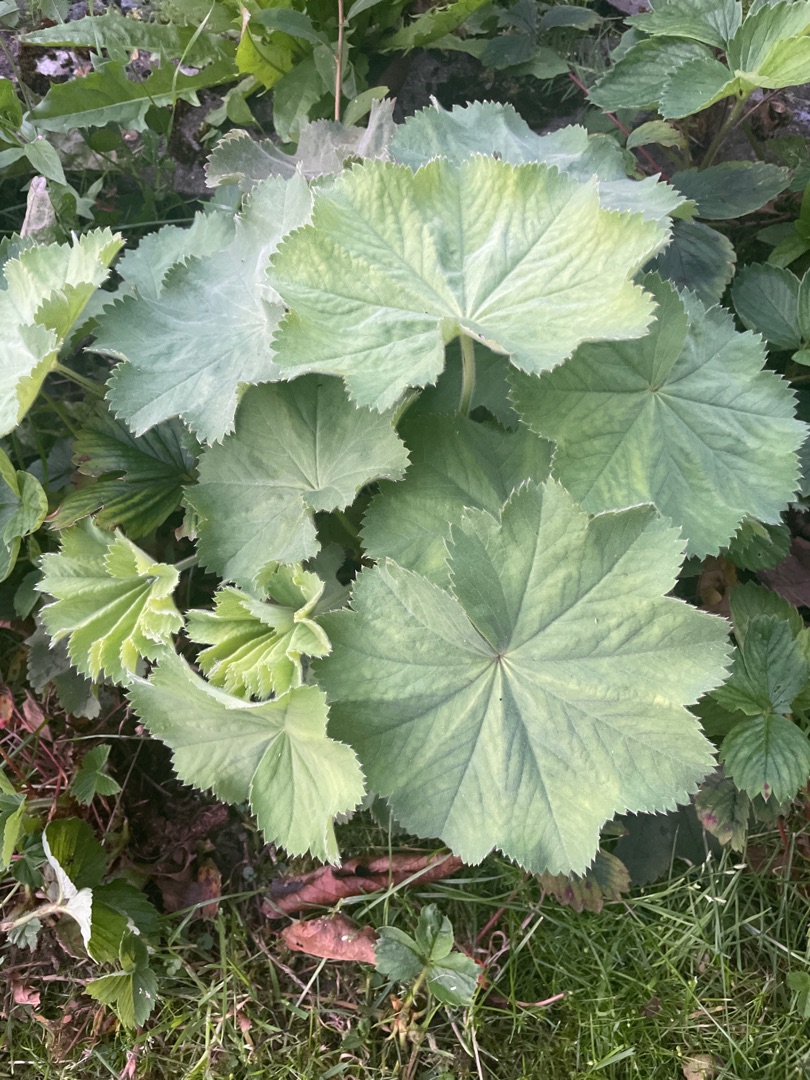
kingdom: Plantae
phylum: Tracheophyta
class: Magnoliopsida
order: Rosales
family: Rosaceae
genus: Alchemilla
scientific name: Alchemilla mollis
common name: Lådden løvefod
